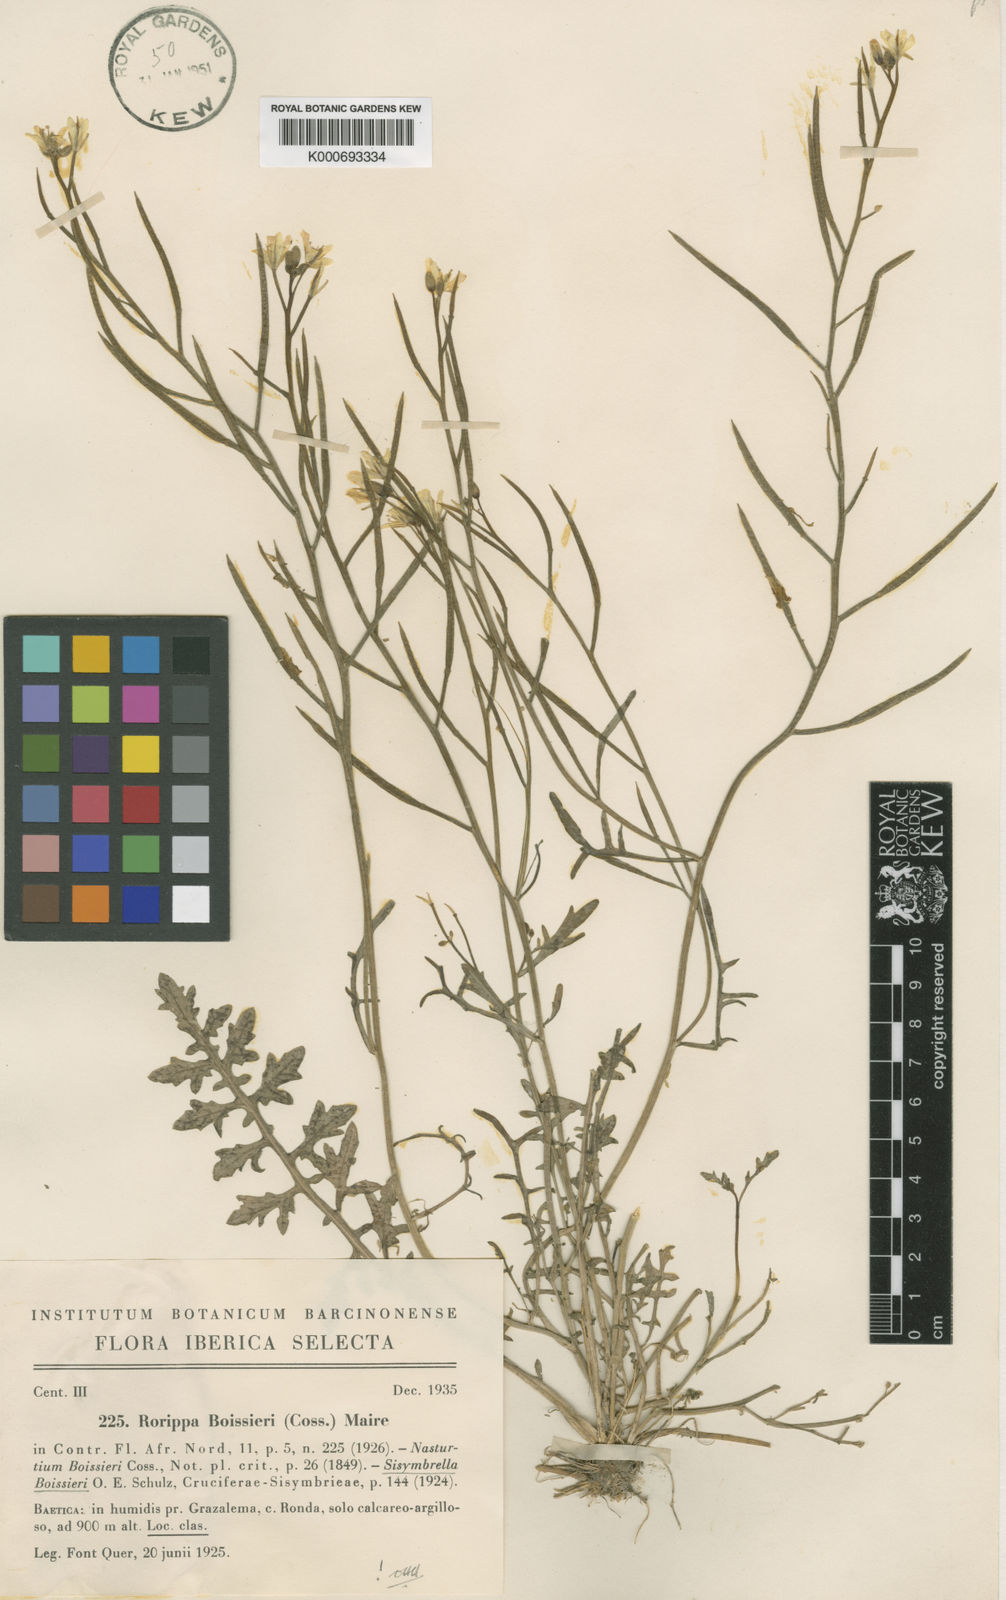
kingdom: Plantae
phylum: Tracheophyta
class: Magnoliopsida
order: Brassicales
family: Brassicaceae
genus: Sisymbrella
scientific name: Sisymbrella aspera
